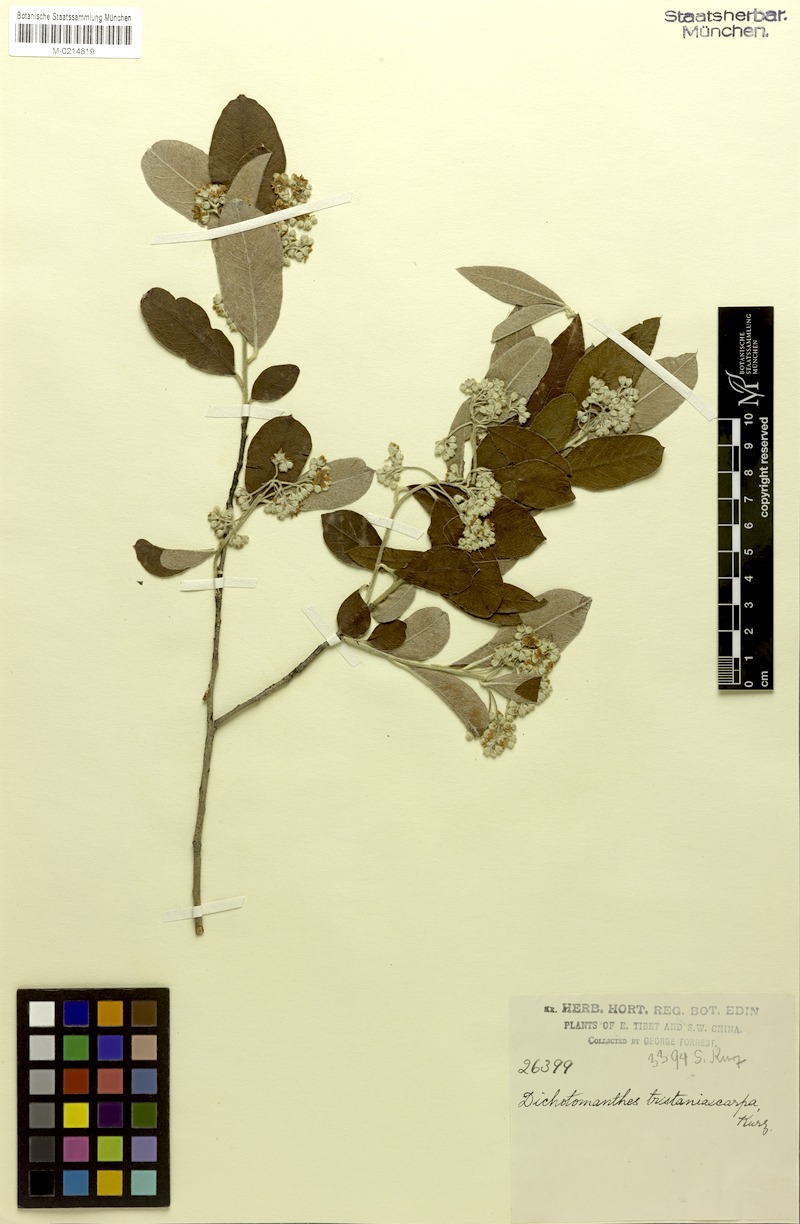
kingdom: Plantae
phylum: Tracheophyta
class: Magnoliopsida
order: Rosales
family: Rosaceae
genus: Dichotomanthes
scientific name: Dichotomanthes tristaniicarpa
